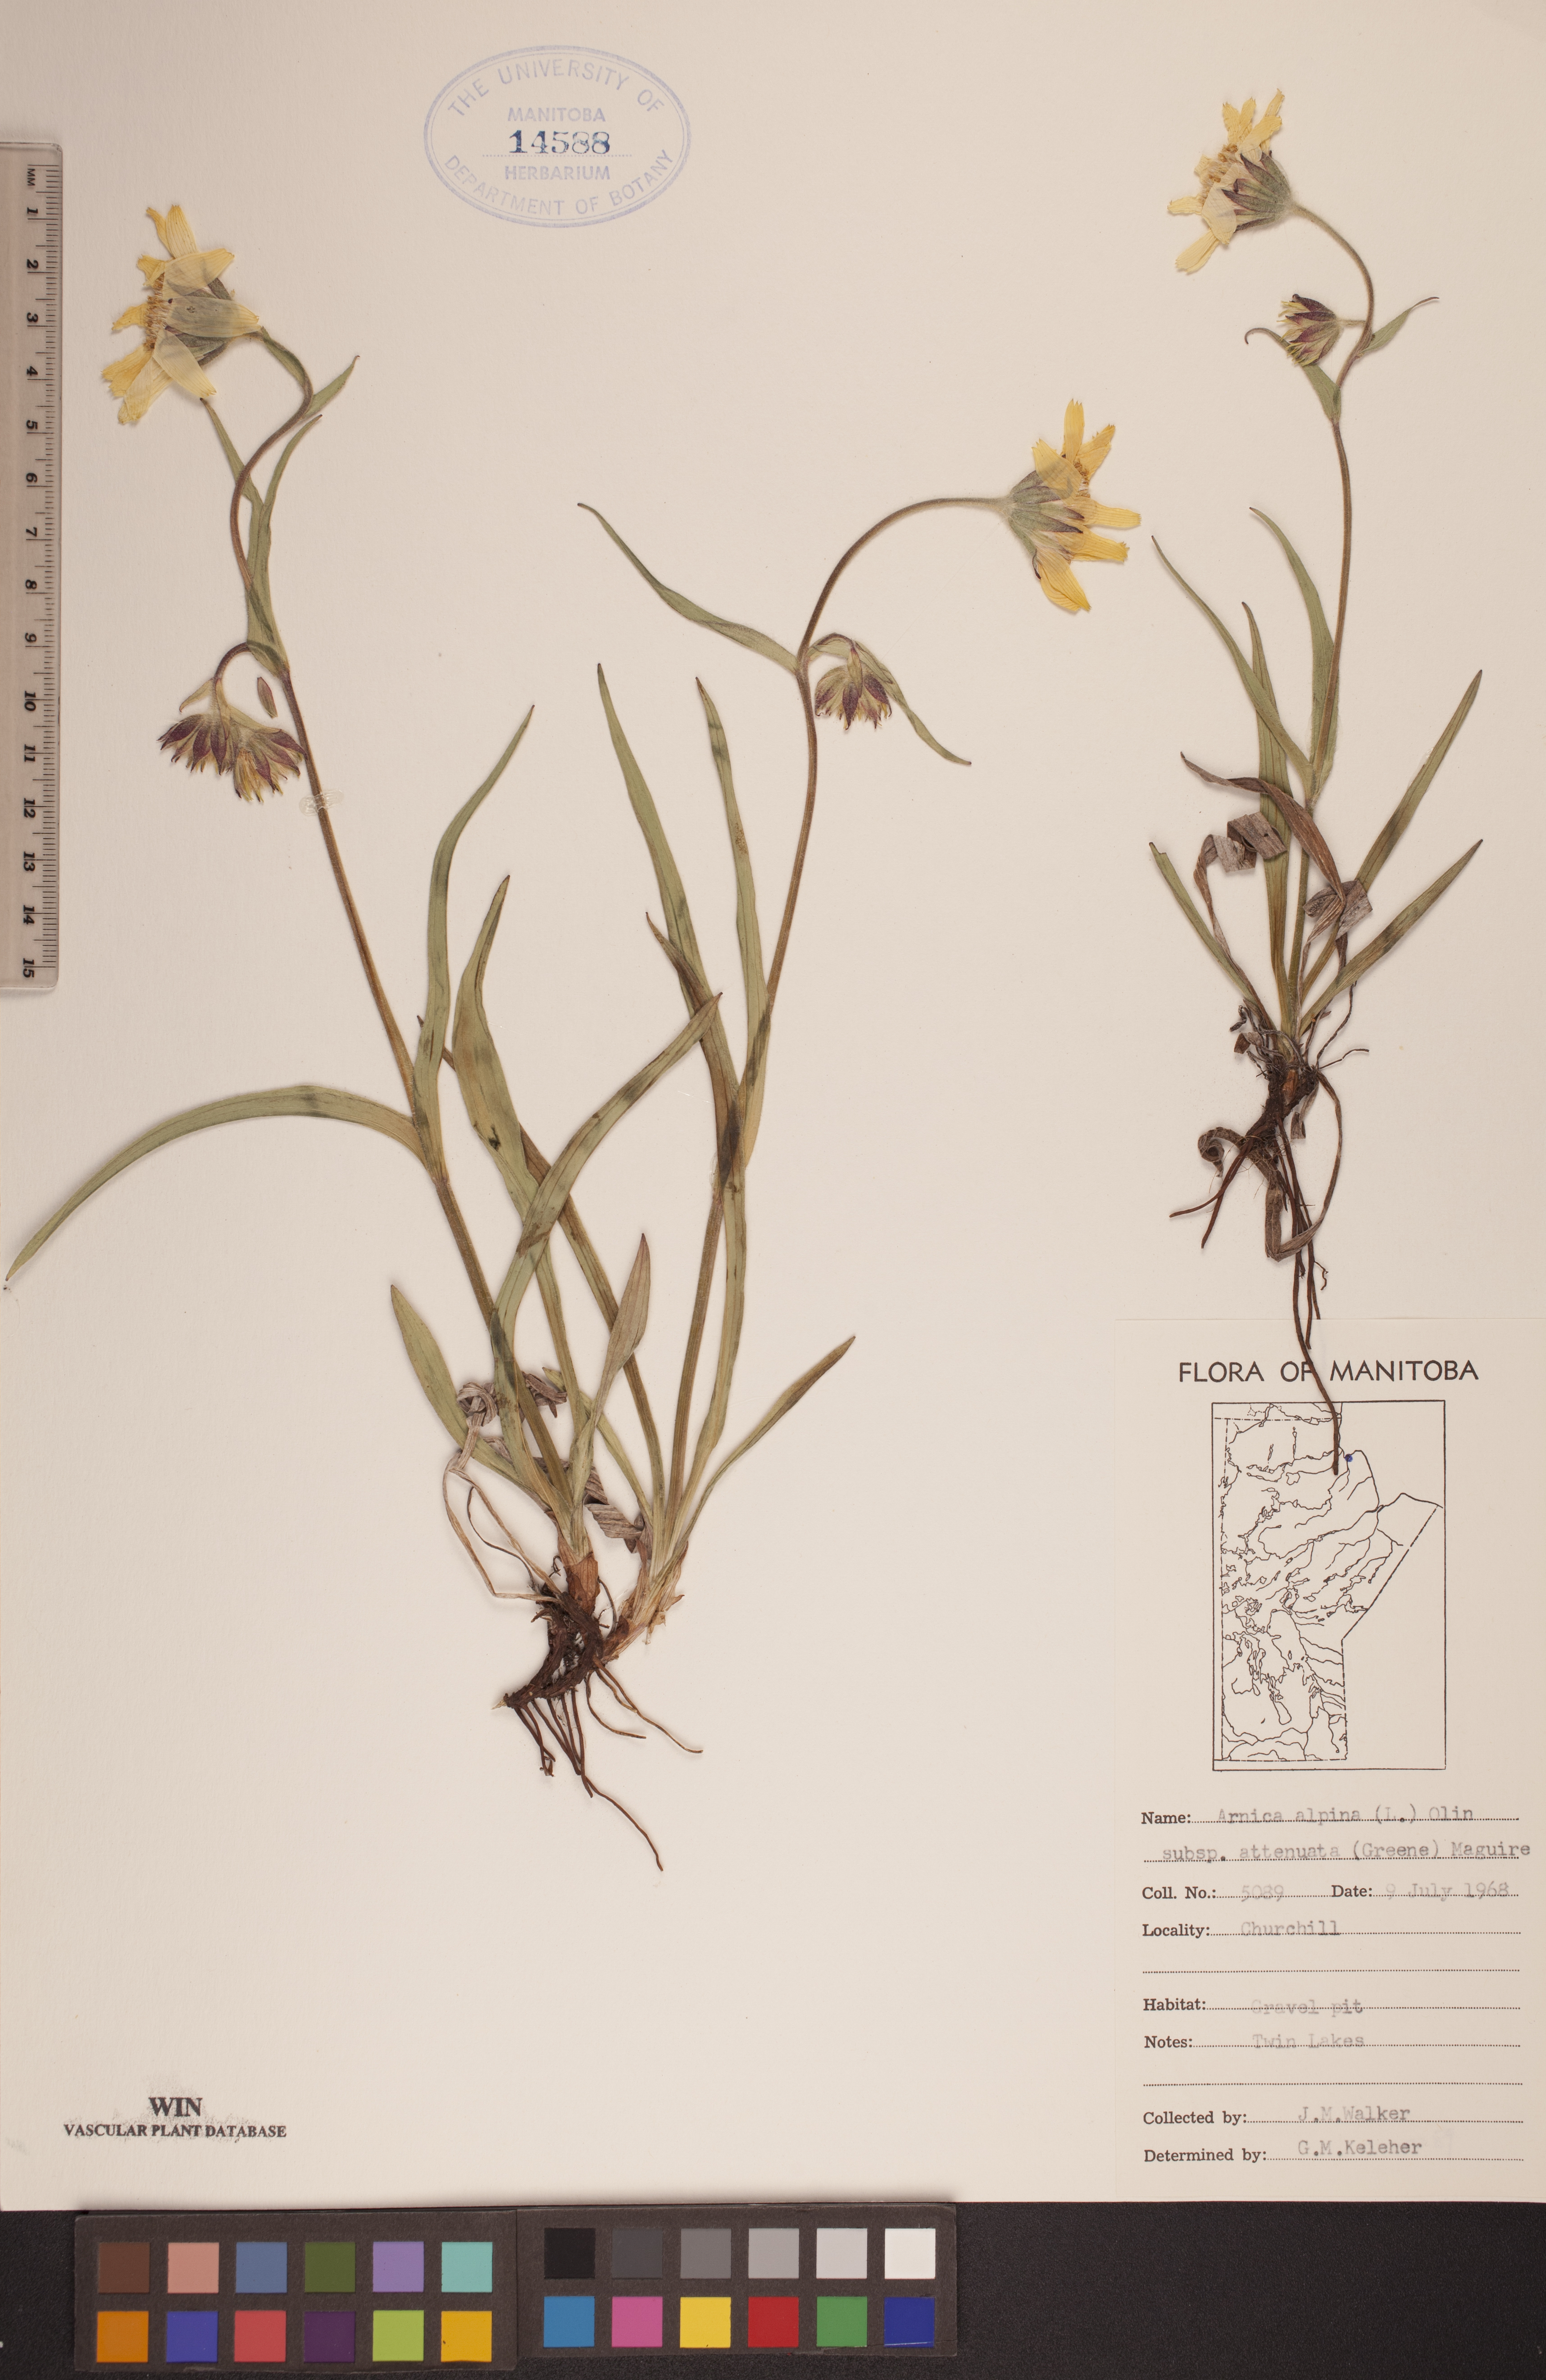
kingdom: Plantae
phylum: Tracheophyta
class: Magnoliopsida
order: Asterales
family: Asteraceae
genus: Arnica
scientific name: Arnica angustifolia
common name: Arctic arnica
